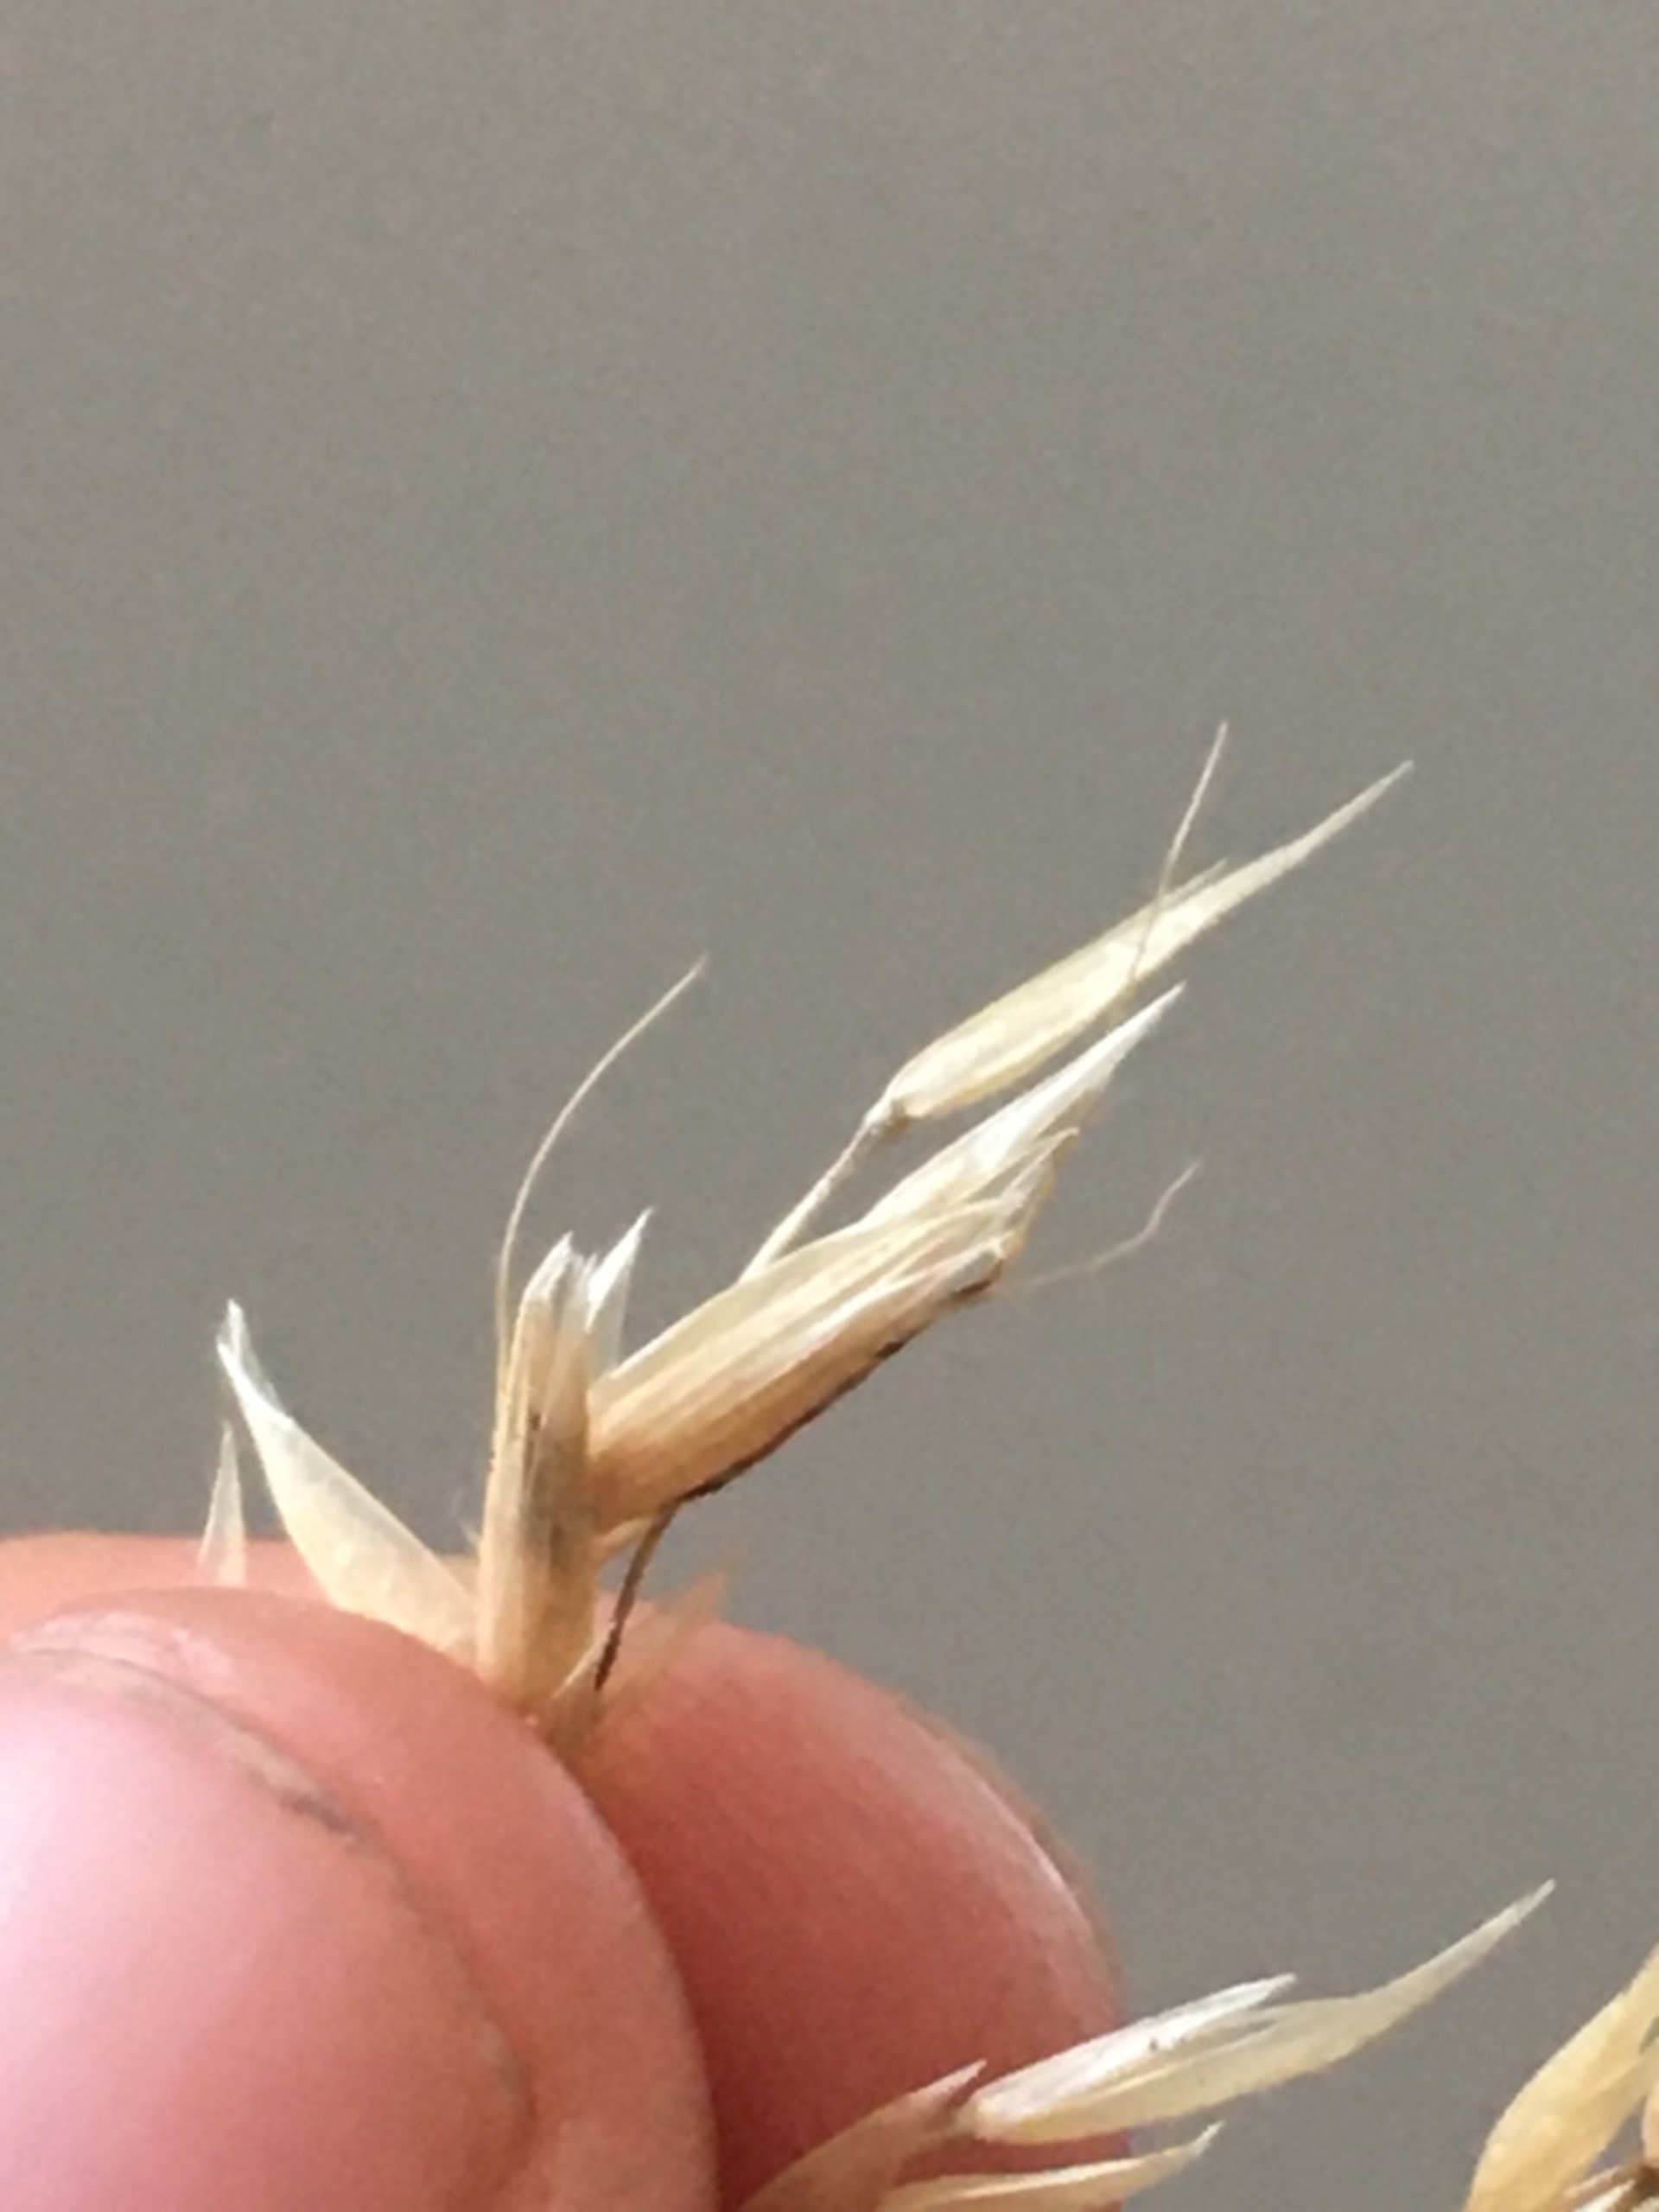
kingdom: Plantae
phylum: Tracheophyta
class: Liliopsida
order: Poales
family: Poaceae
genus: Arrhenatherum
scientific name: Arrhenatherum elatius
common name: Draphavre
